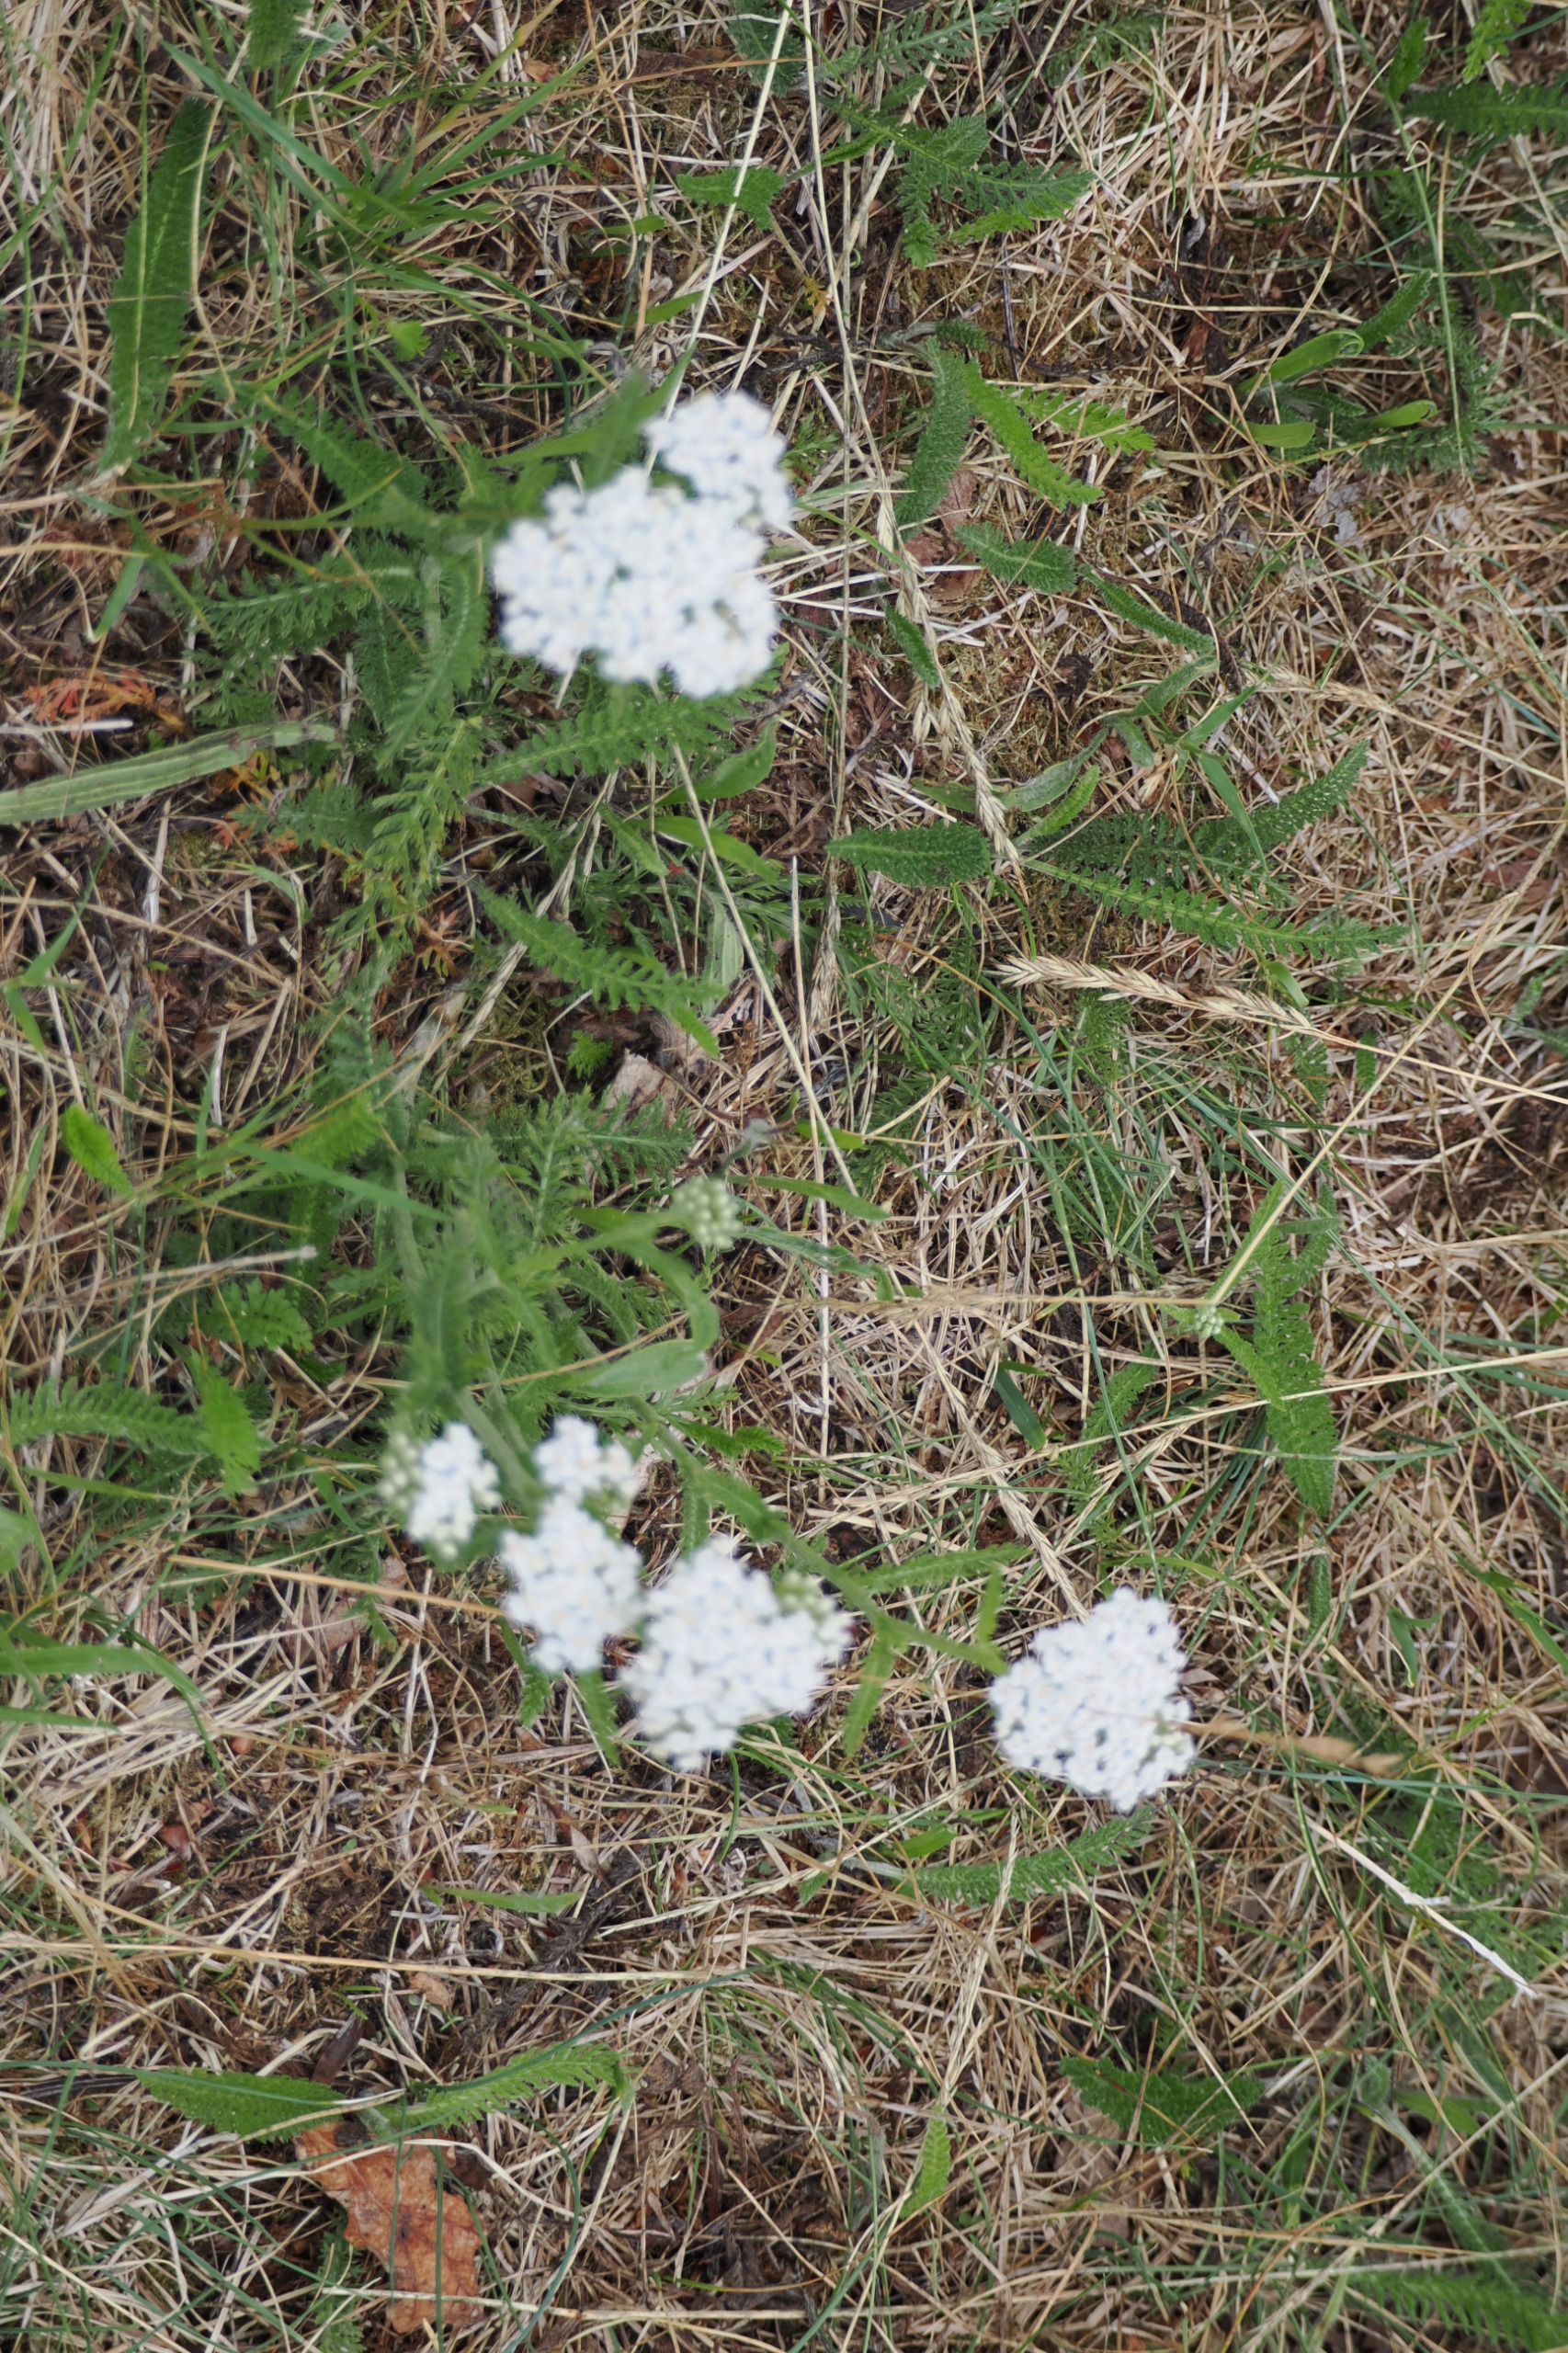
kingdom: Plantae
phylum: Tracheophyta
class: Magnoliopsida
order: Asterales
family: Asteraceae
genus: Achillea
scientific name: Achillea millefolium
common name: Almindelig røllike
